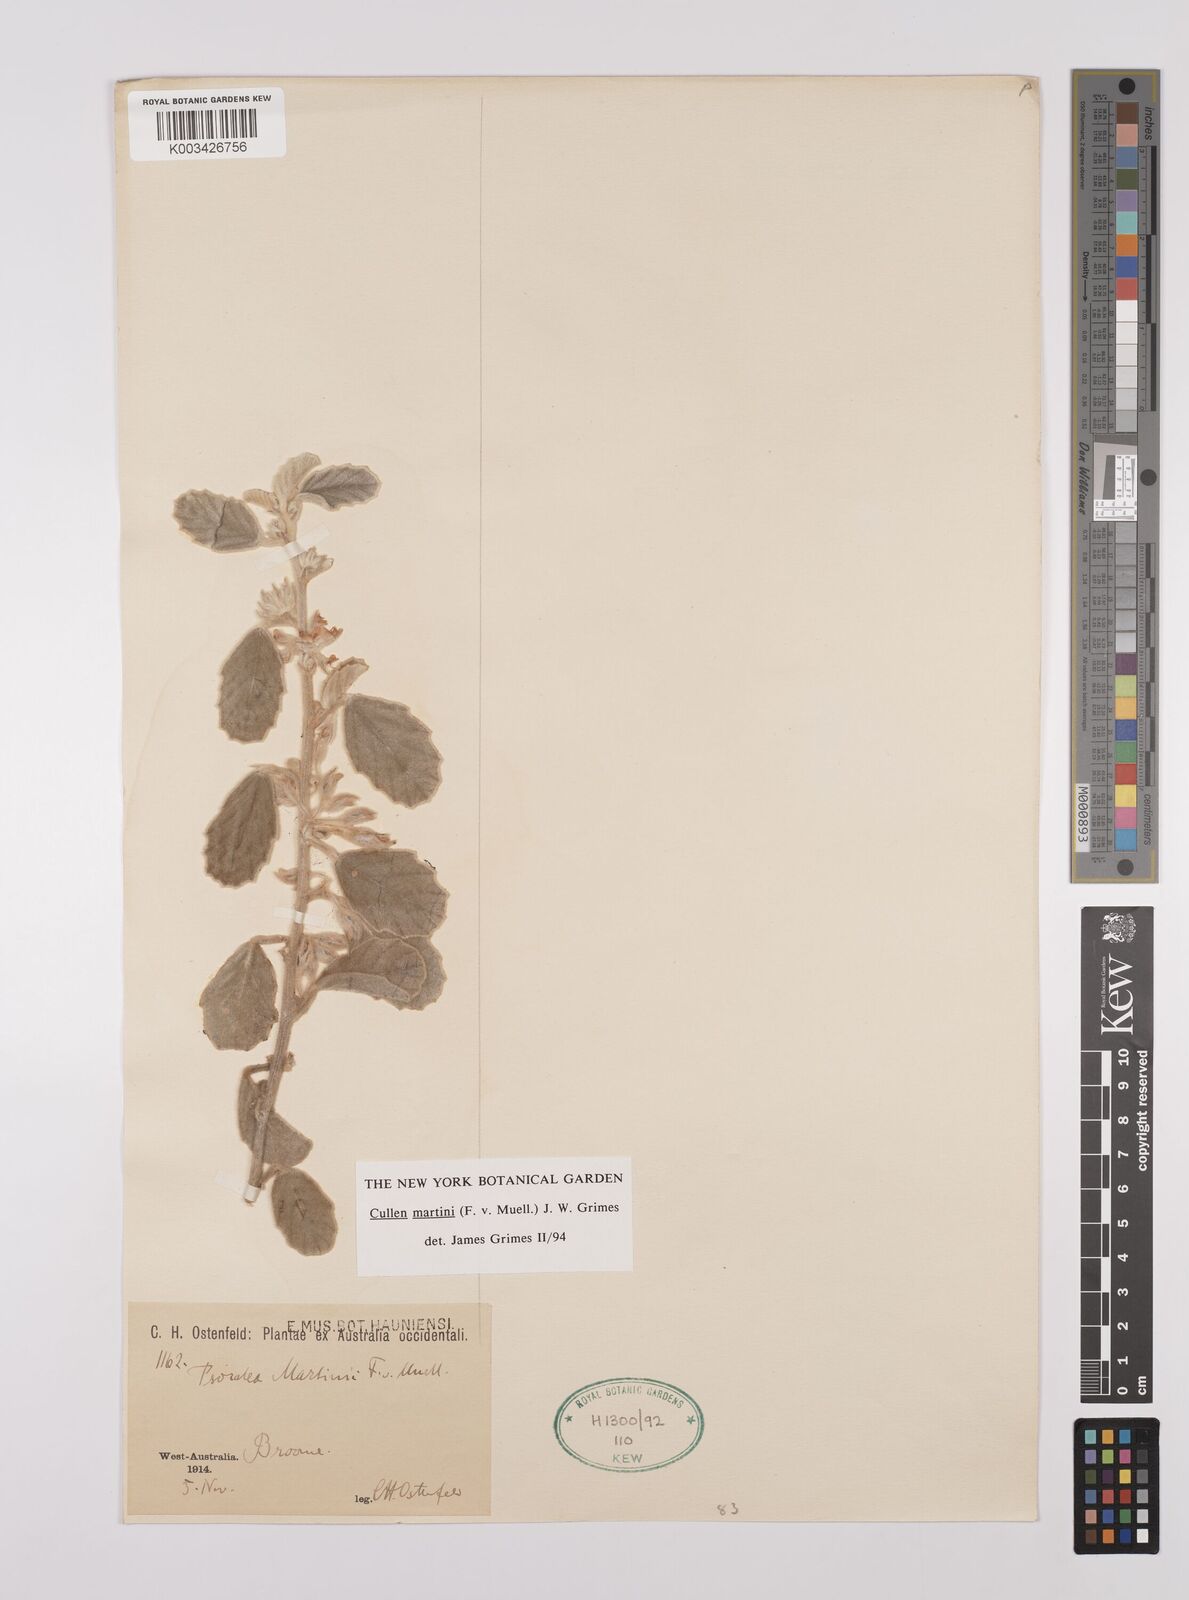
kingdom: Plantae
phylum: Tracheophyta
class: Magnoliopsida
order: Fabales
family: Fabaceae
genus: Cullen
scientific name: Cullen martini
